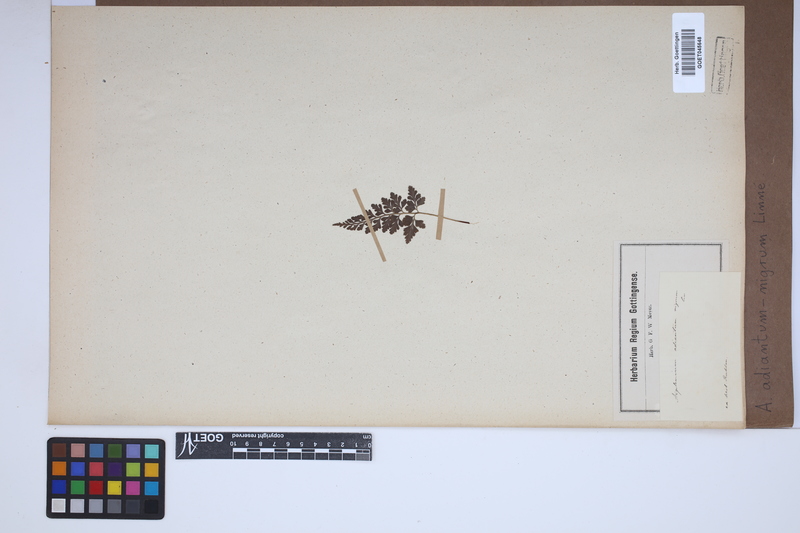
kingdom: Plantae
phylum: Tracheophyta
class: Polypodiopsida
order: Polypodiales
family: Aspleniaceae
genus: Asplenium
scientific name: Asplenium adiantum-nigrum
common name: Black spleenwort
